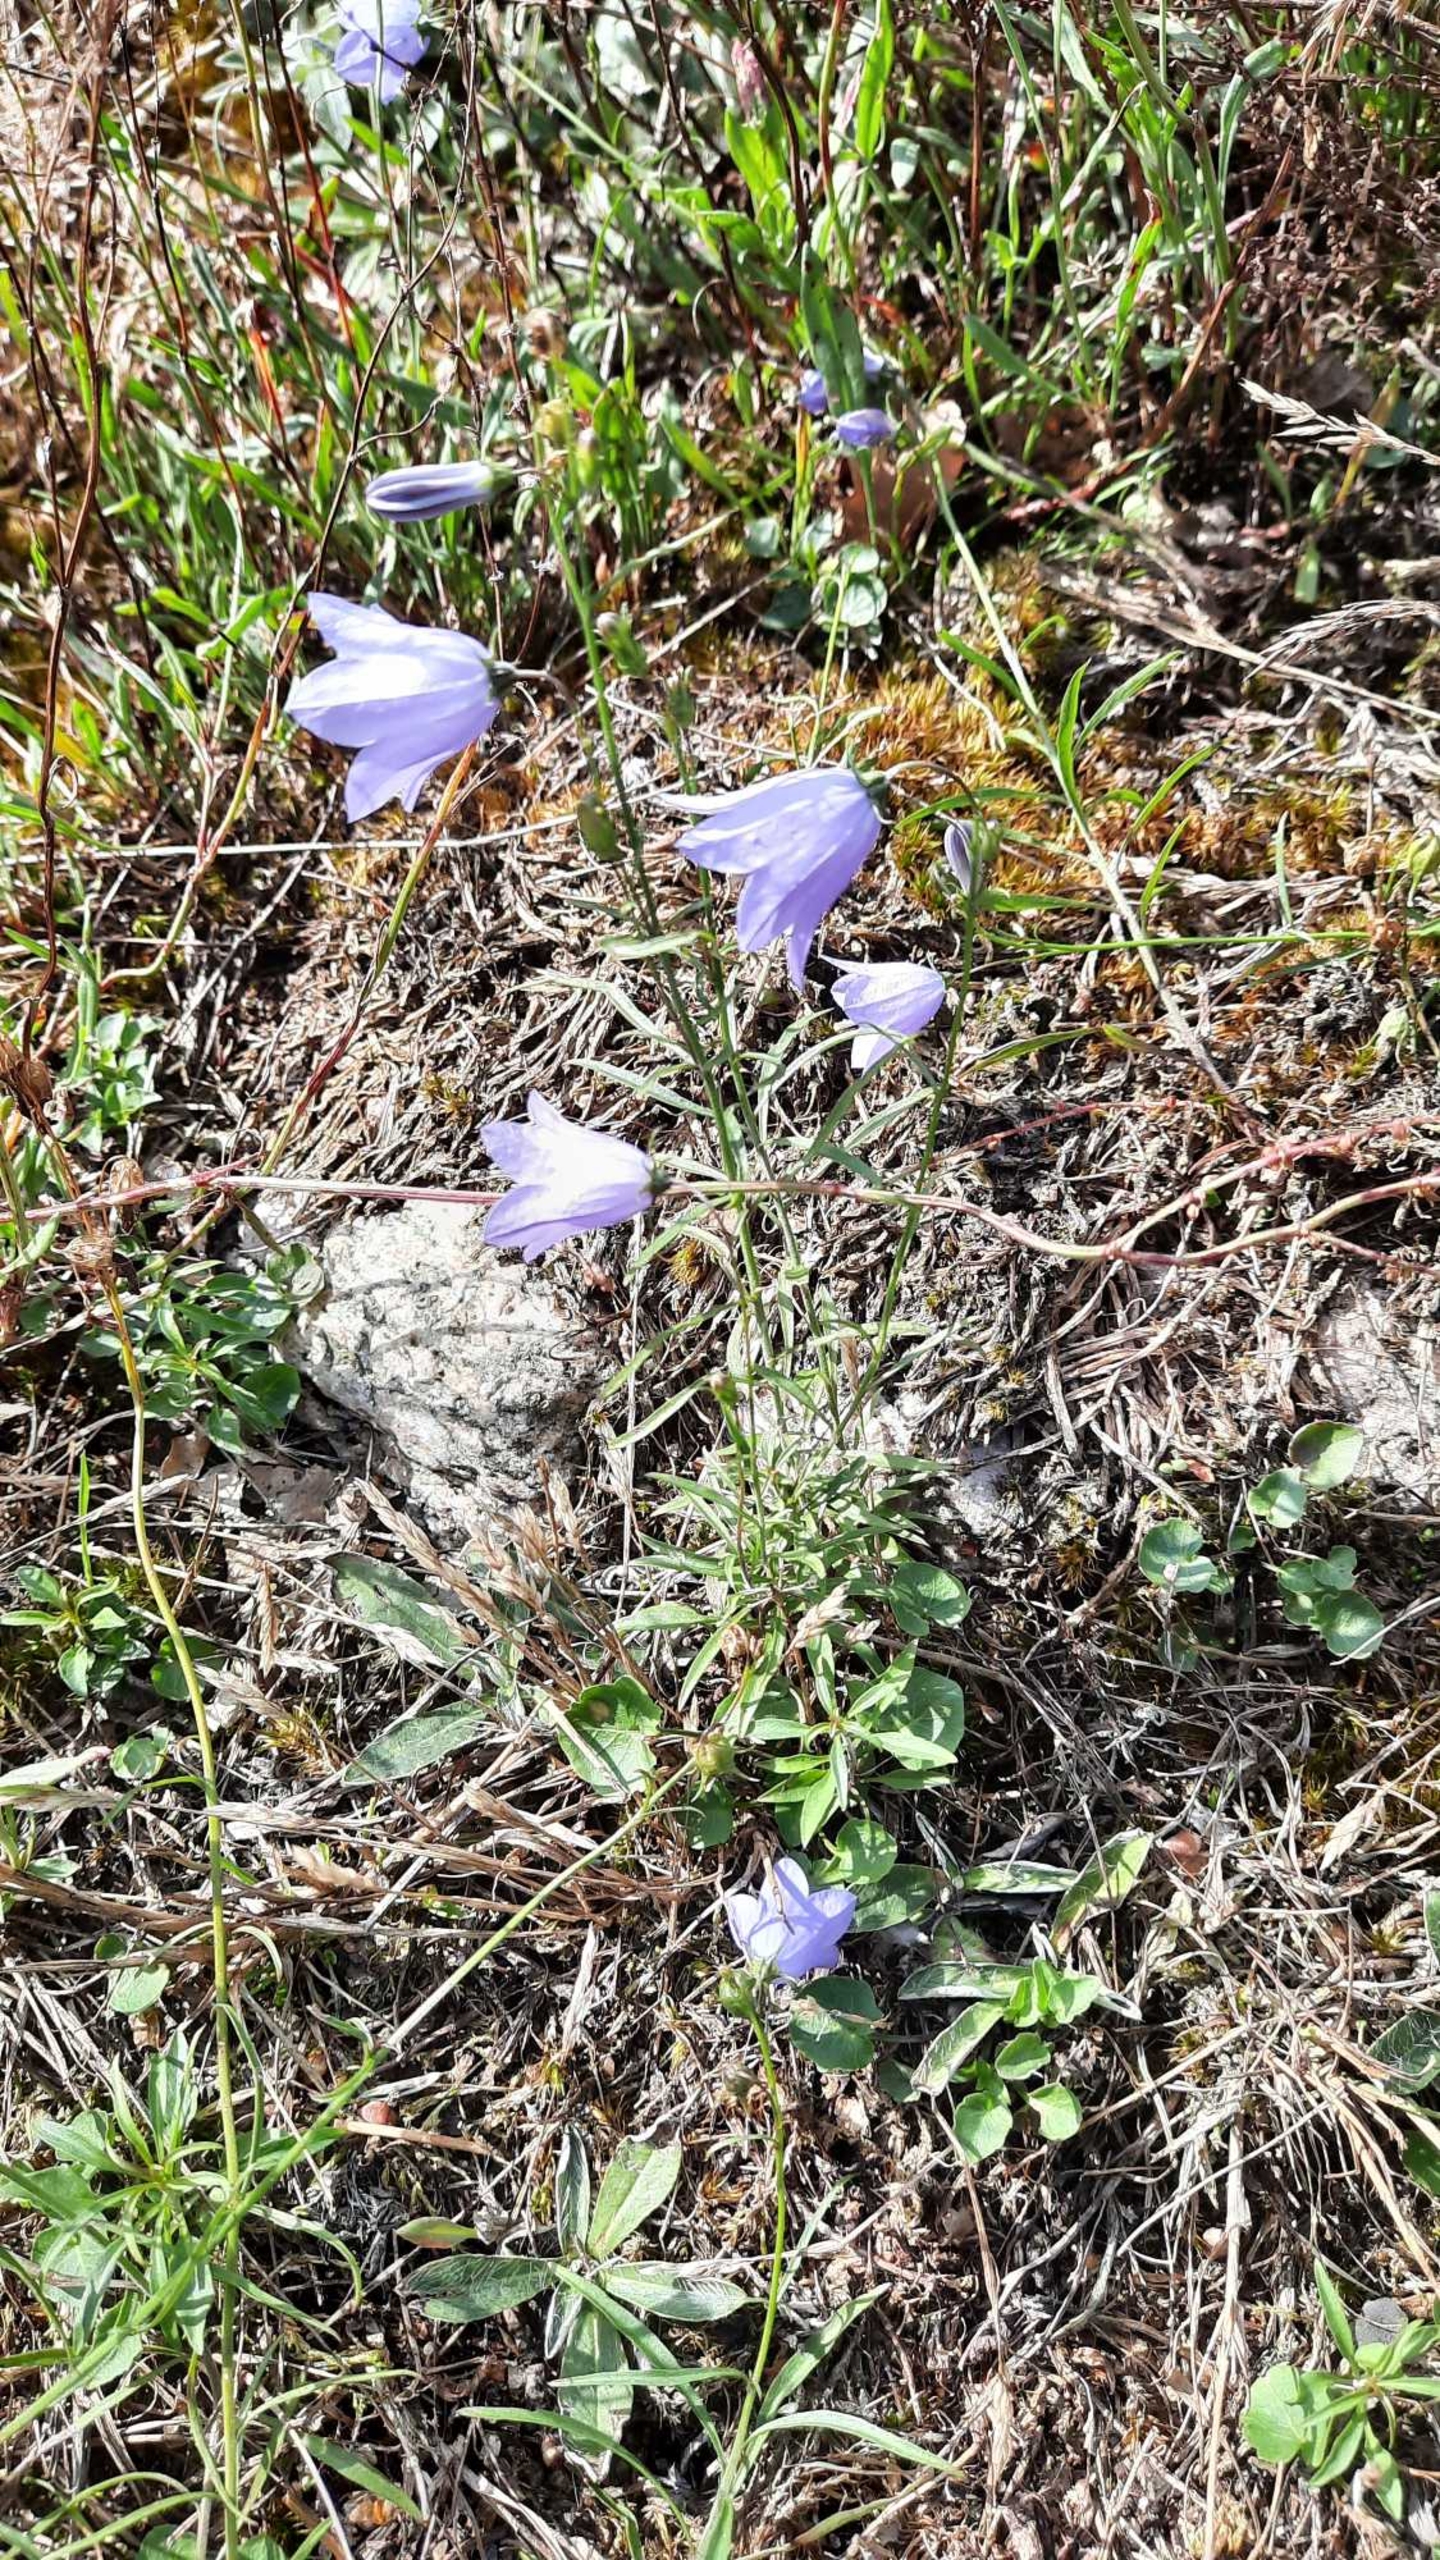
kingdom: Plantae
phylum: Tracheophyta
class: Magnoliopsida
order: Asterales
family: Campanulaceae
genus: Campanula
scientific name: Campanula rotundifolia
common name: Liden klokke
